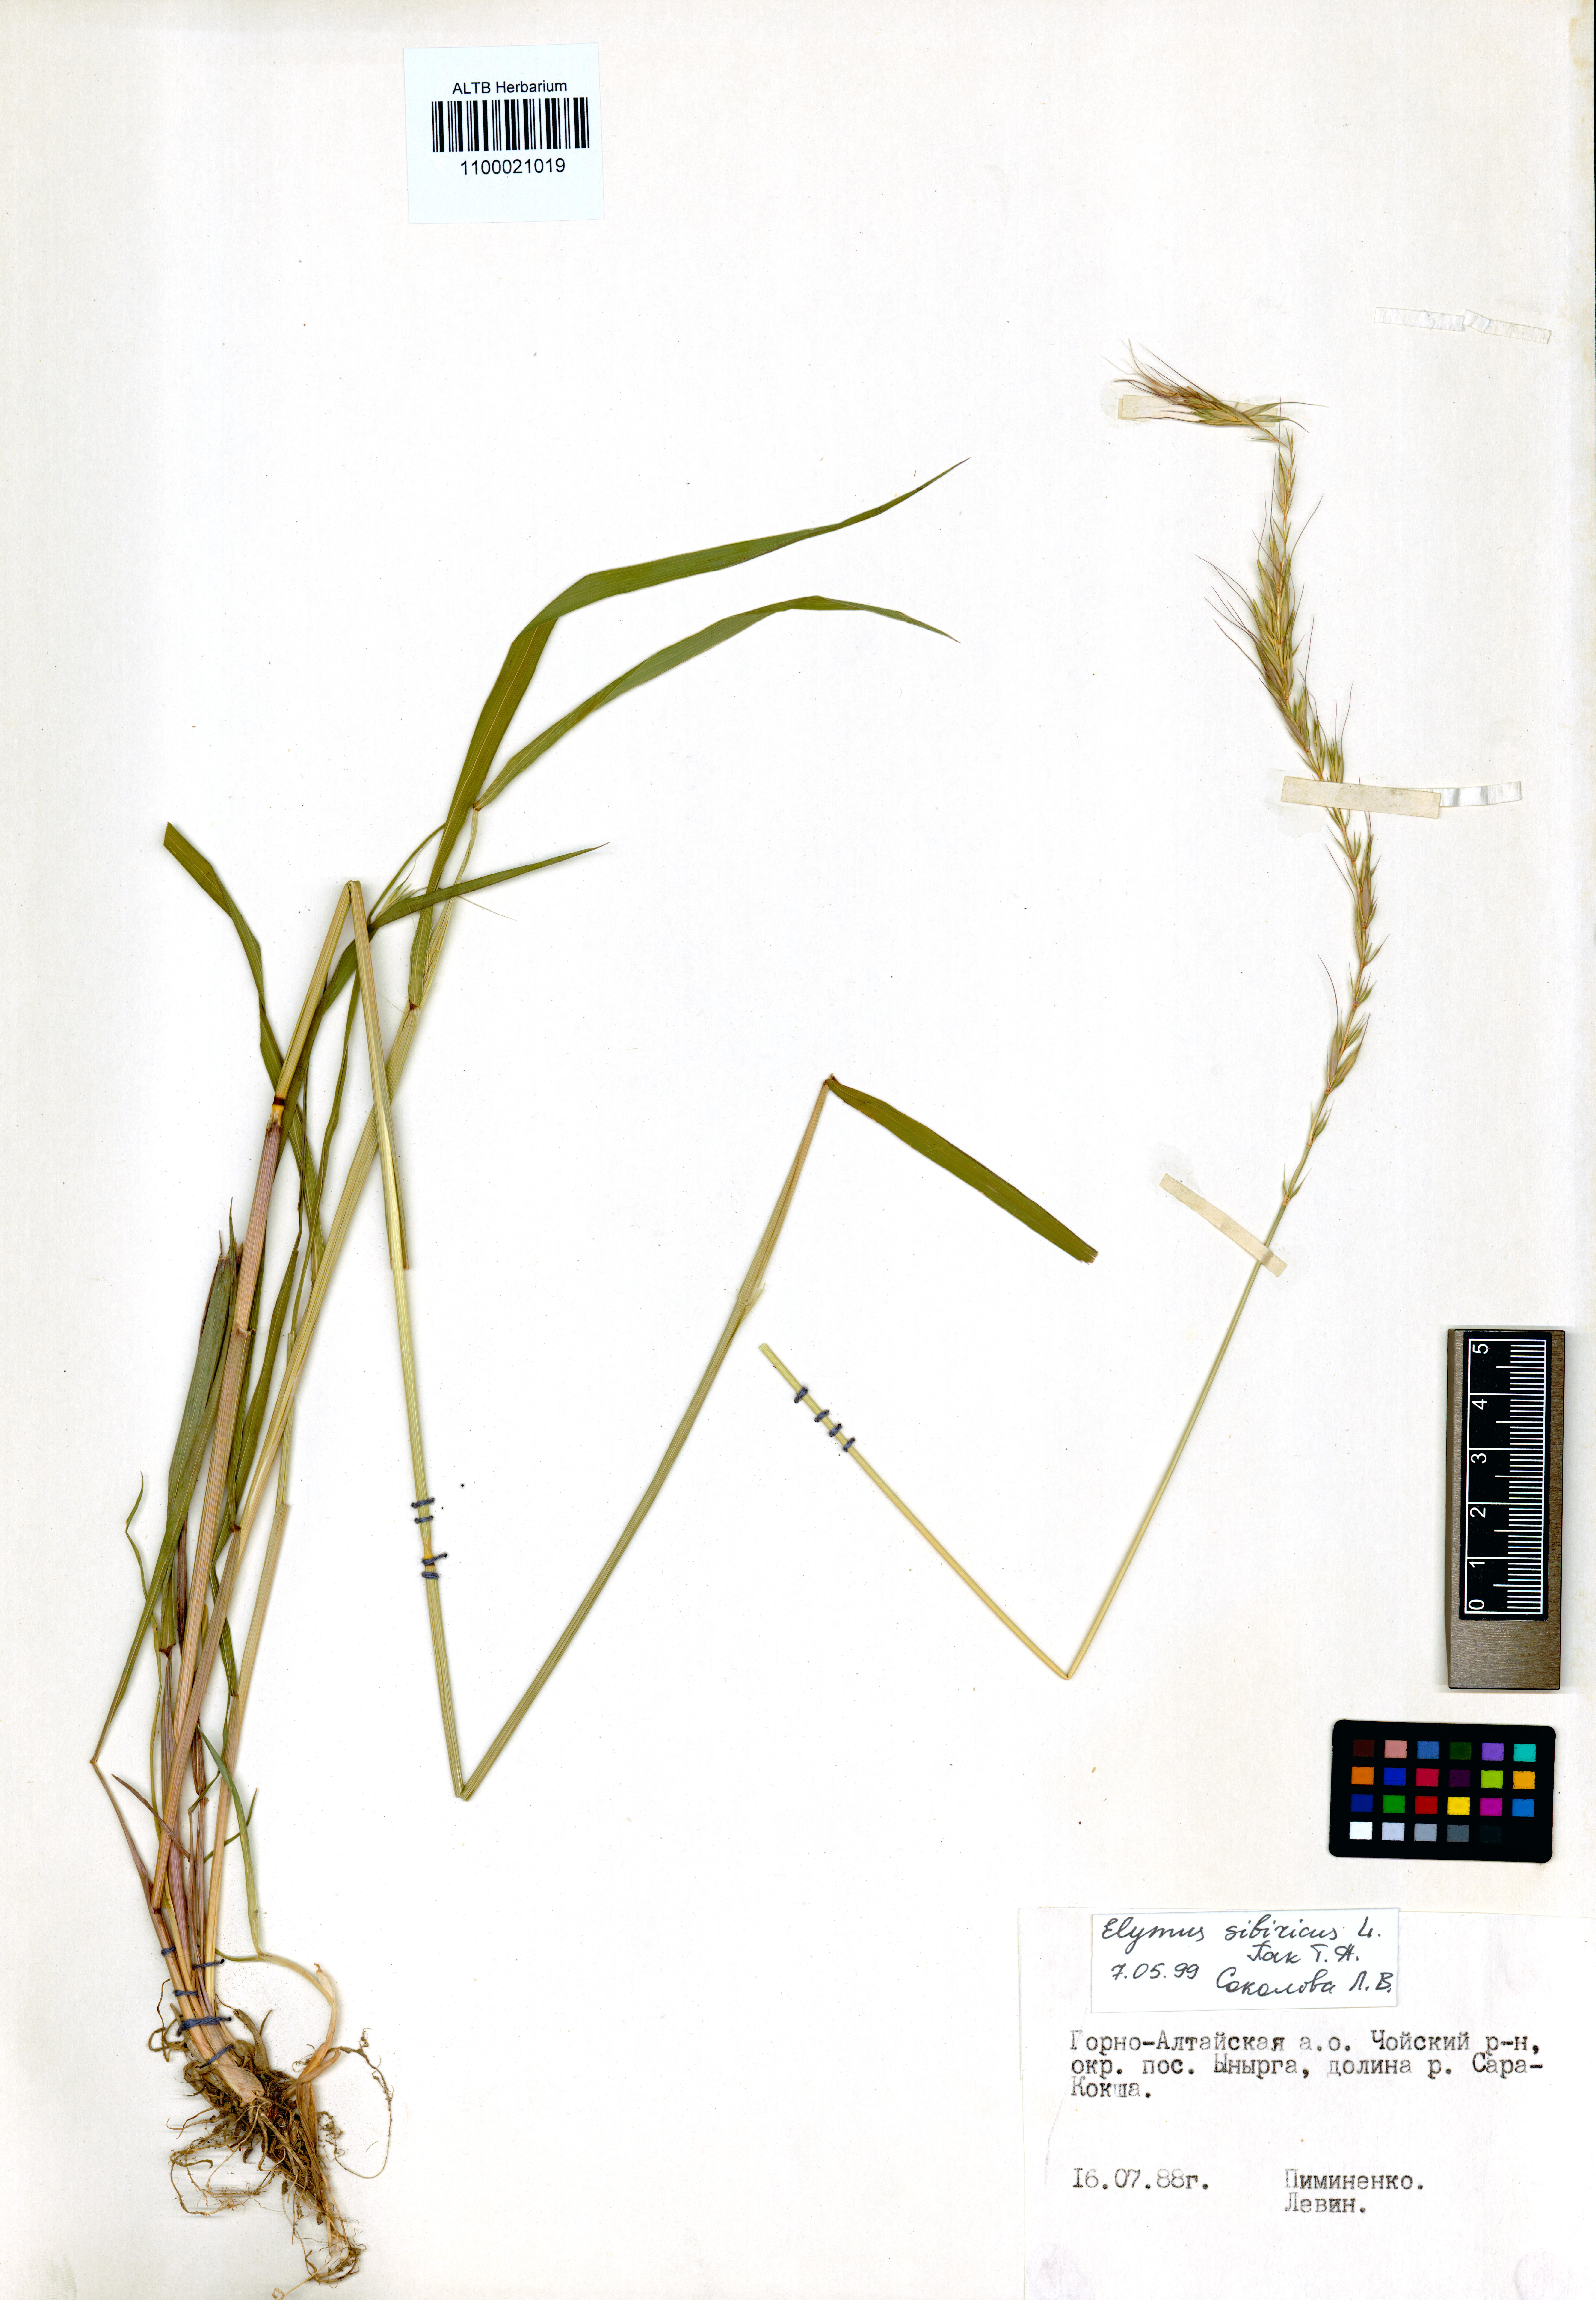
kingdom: Plantae
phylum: Tracheophyta
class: Liliopsida
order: Poales
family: Poaceae
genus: Elymus
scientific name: Elymus sibiricus
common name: Siberian wildrye
